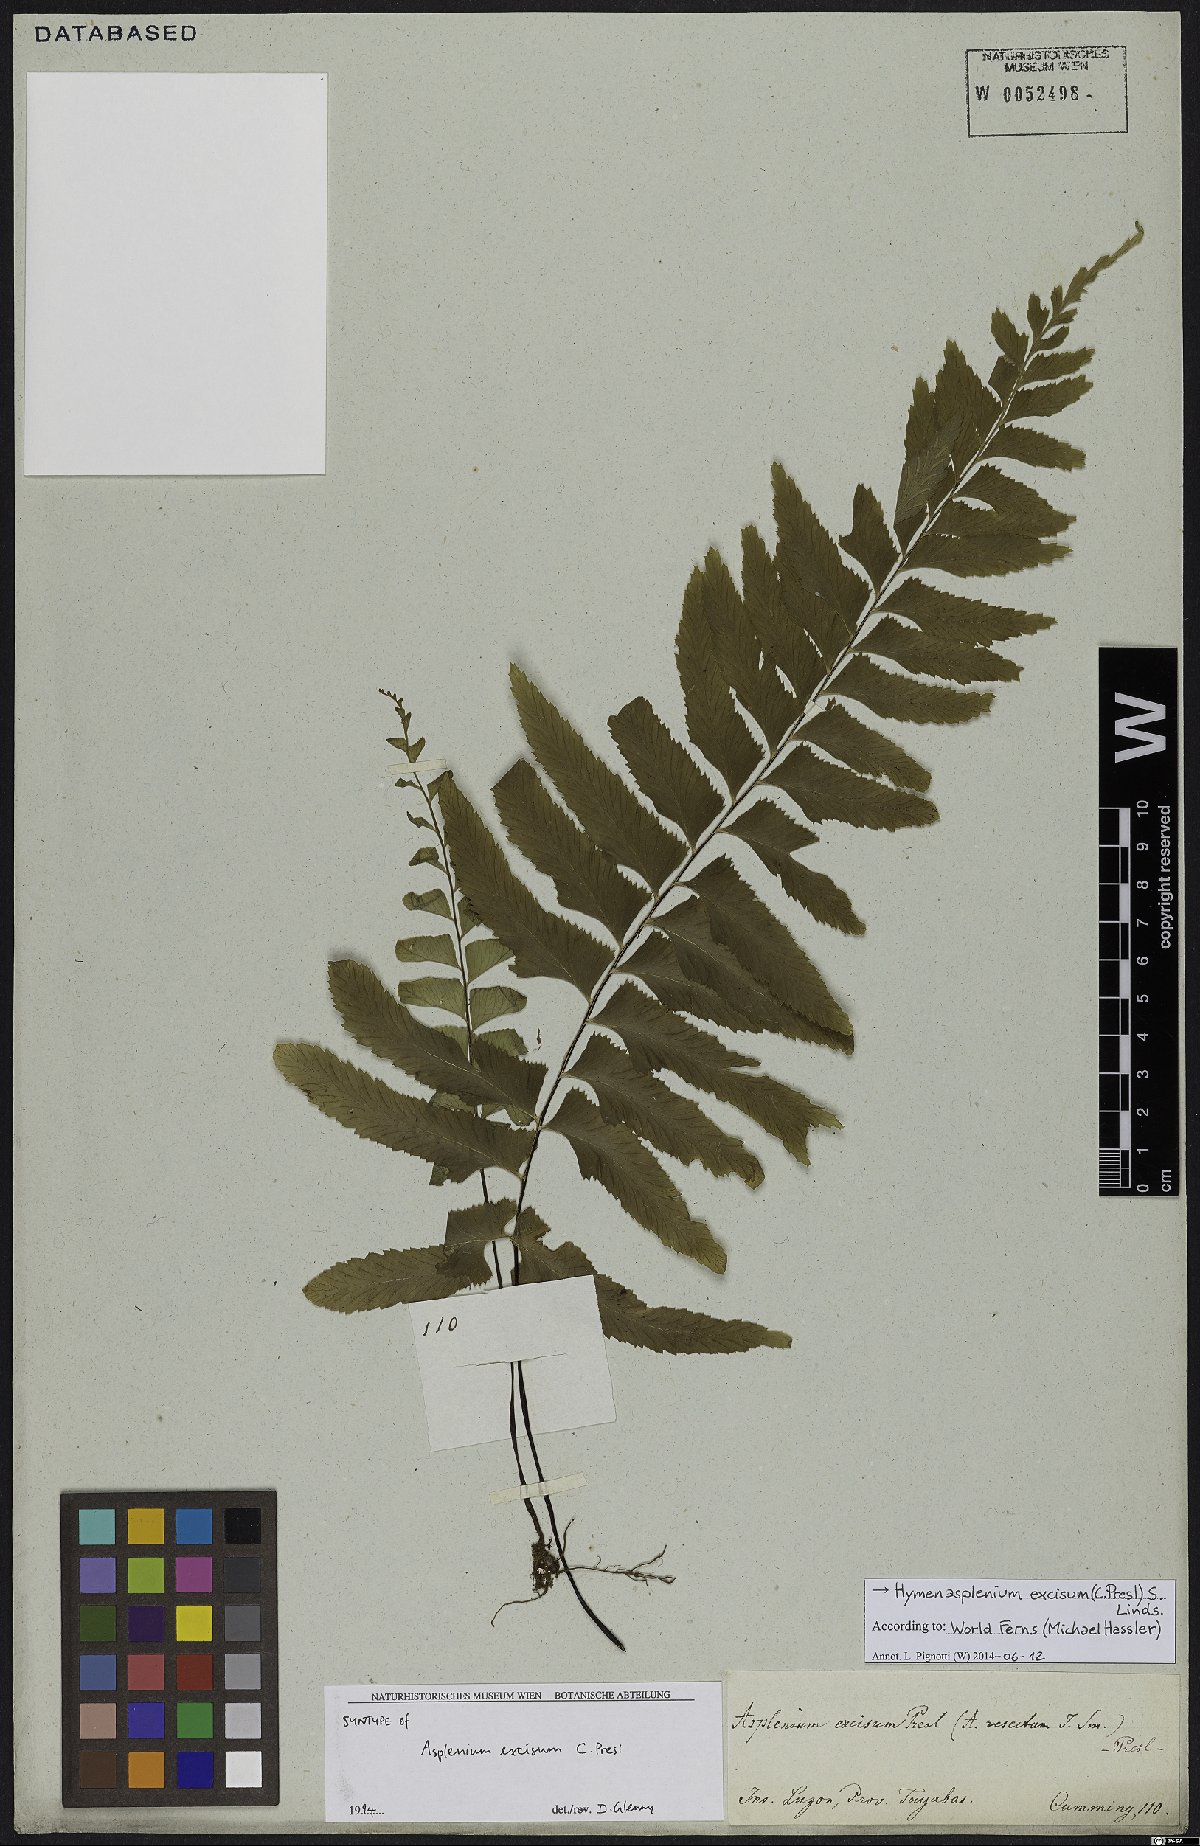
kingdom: Plantae
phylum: Tracheophyta
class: Polypodiopsida
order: Polypodiales
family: Aspleniaceae
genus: Hymenasplenium
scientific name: Hymenasplenium excisum
